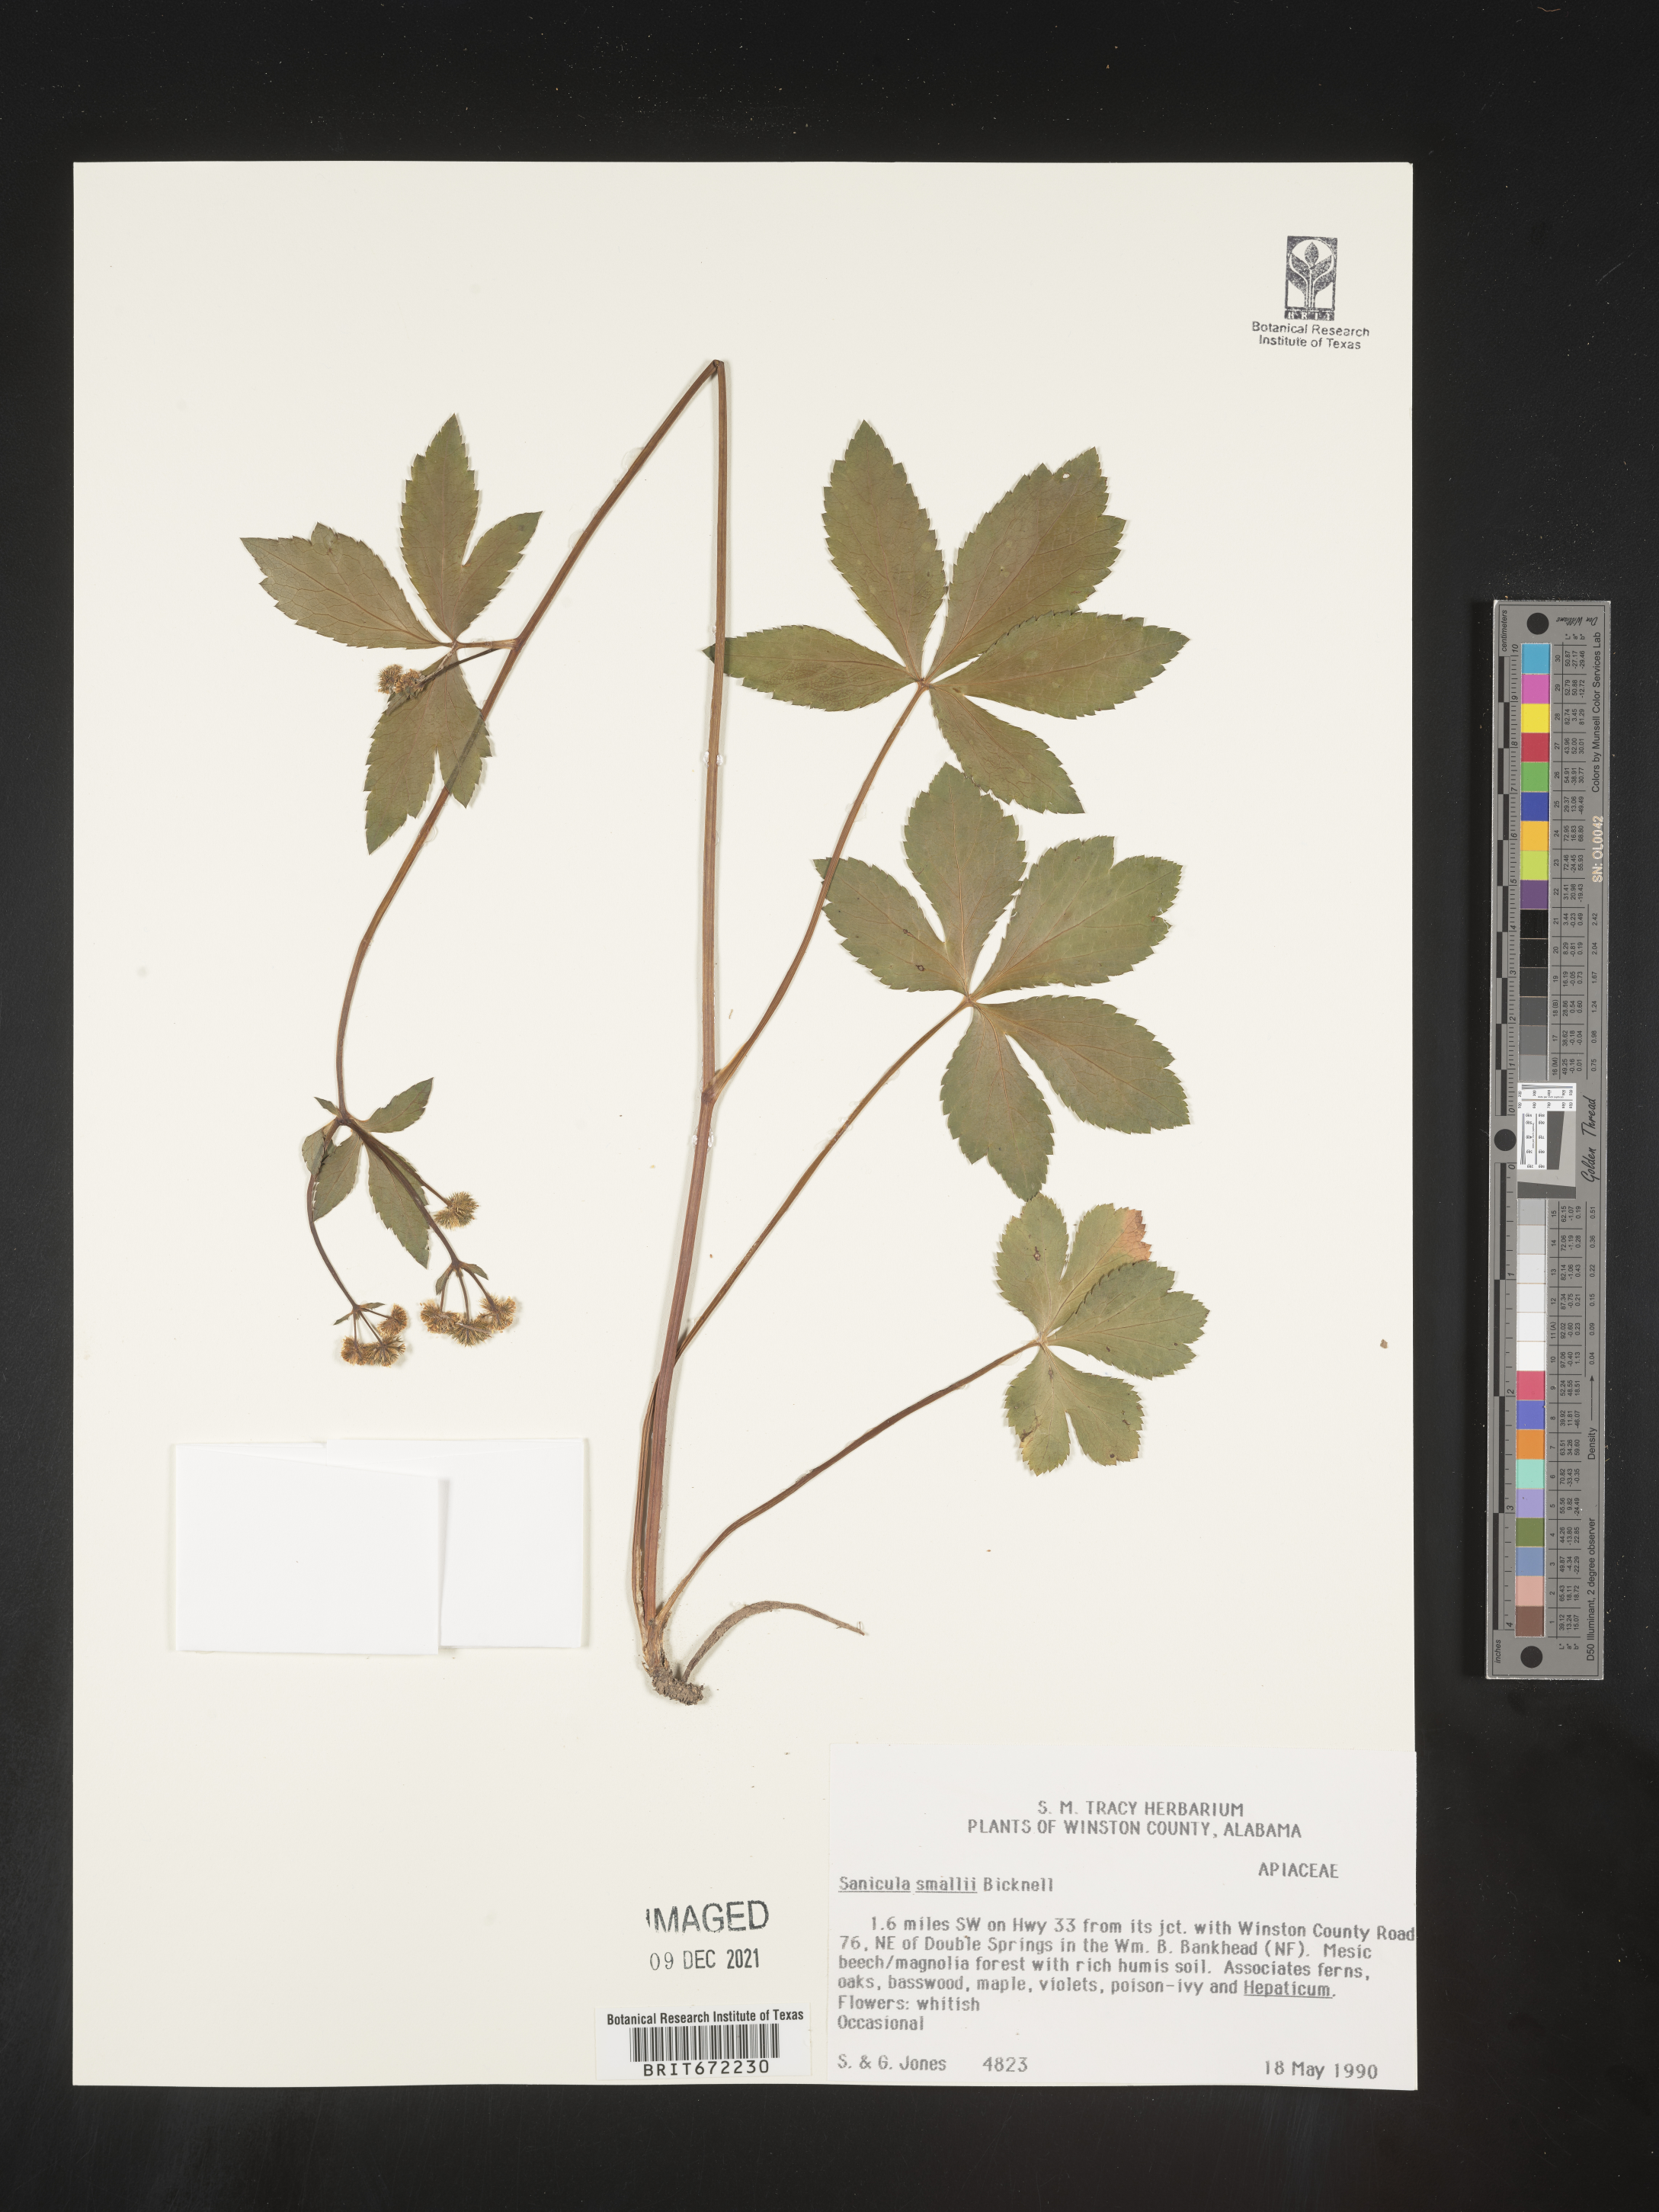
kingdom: Plantae
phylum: Tracheophyta
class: Magnoliopsida
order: Apiales
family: Apiaceae
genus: Sanicula
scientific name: Sanicula
